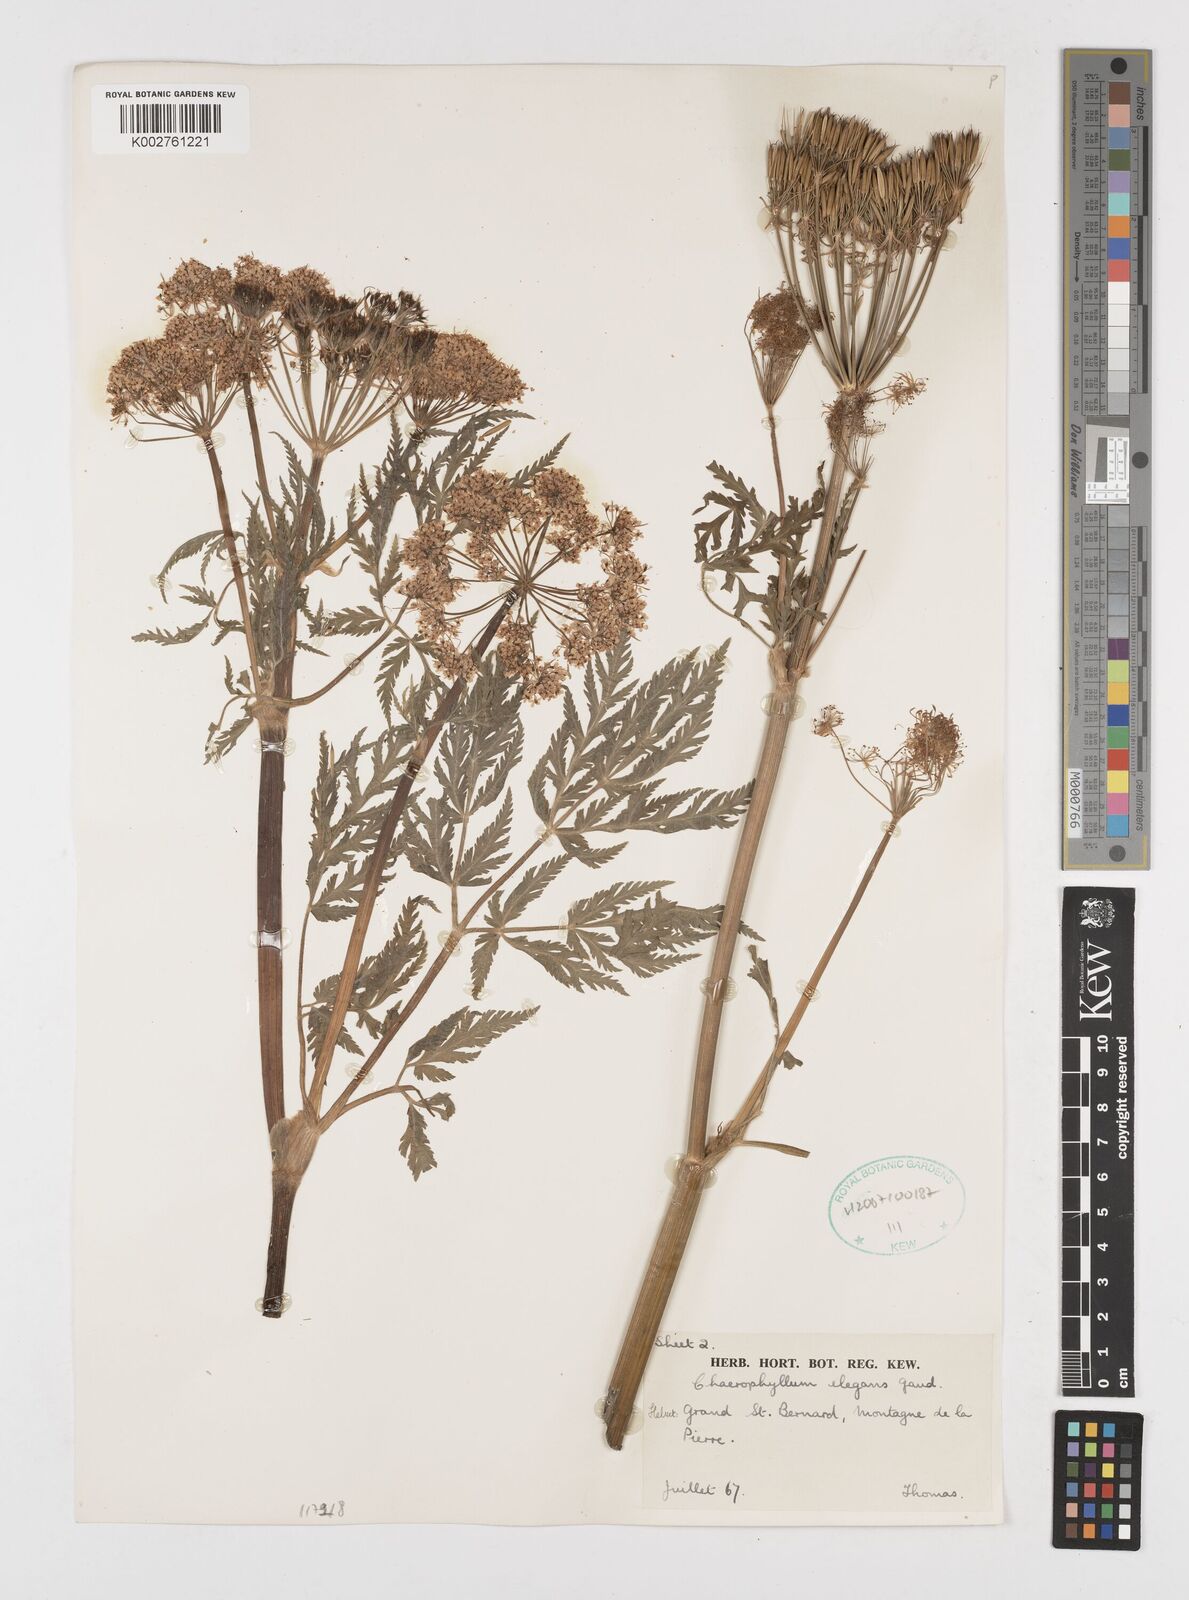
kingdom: Plantae
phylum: Tracheophyta
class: Magnoliopsida
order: Apiales
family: Apiaceae
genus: Chaerophyllum
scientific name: Chaerophyllum elegans
